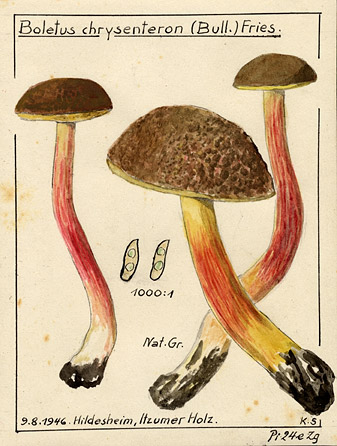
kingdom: Fungi
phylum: Basidiomycota
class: Agaricomycetes
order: Boletales
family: Boletaceae
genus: Xerocomellus
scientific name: Xerocomellus chrysenteron
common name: Red-cracking bolete
